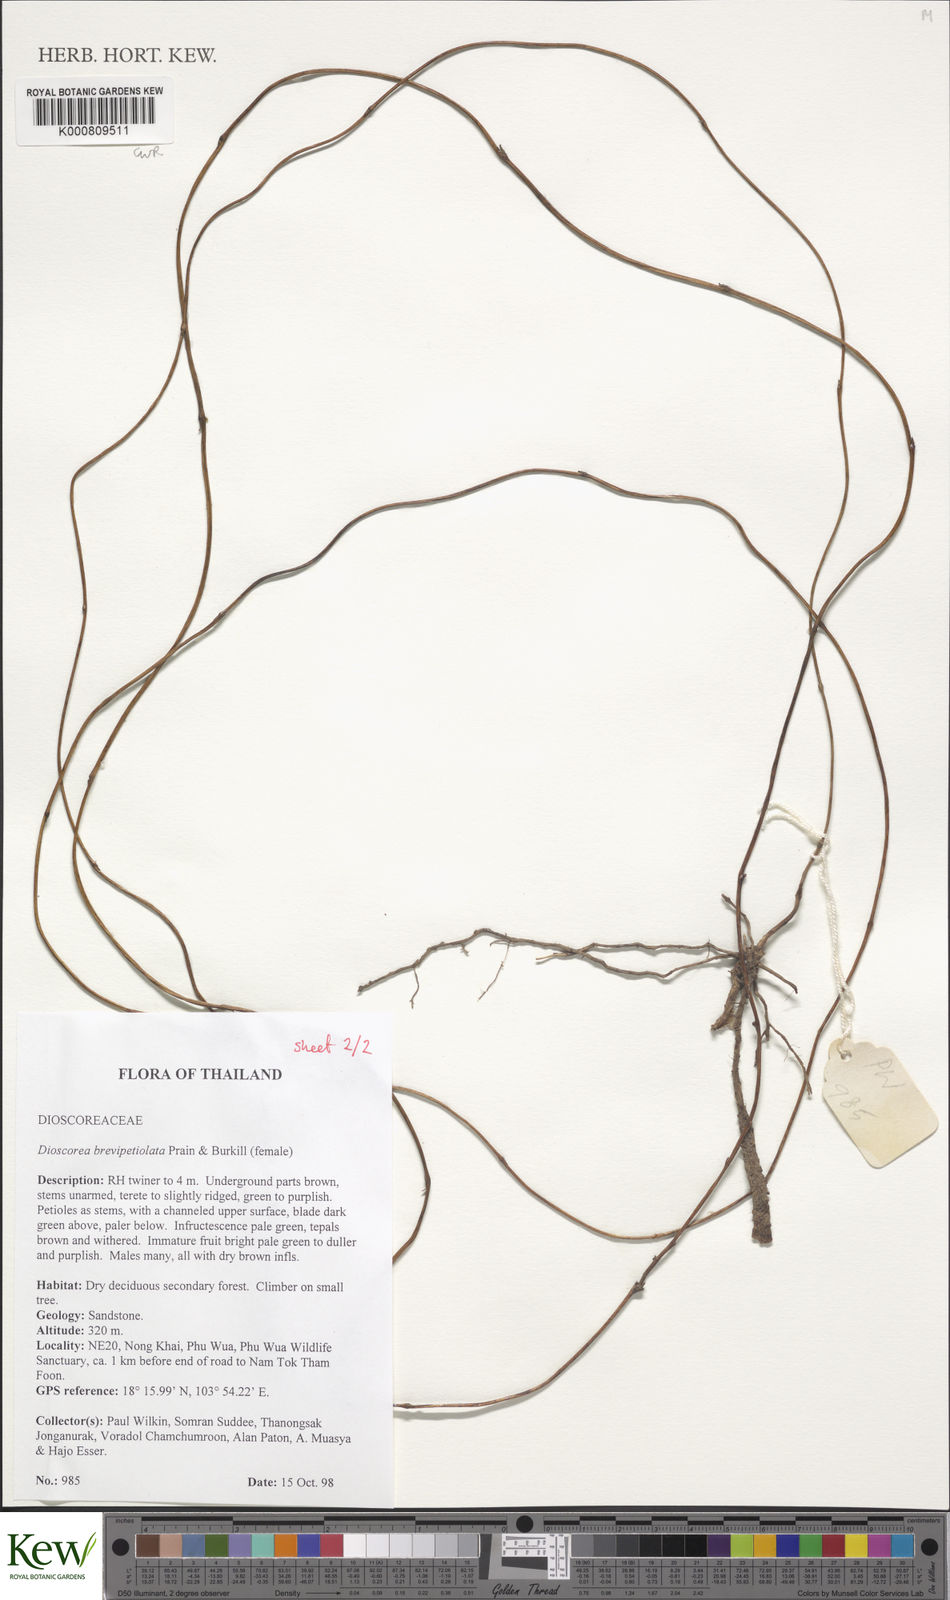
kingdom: Plantae
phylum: Tracheophyta
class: Liliopsida
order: Dioscoreales
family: Dioscoreaceae
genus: Dioscorea
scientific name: Dioscorea brevipetiolata
